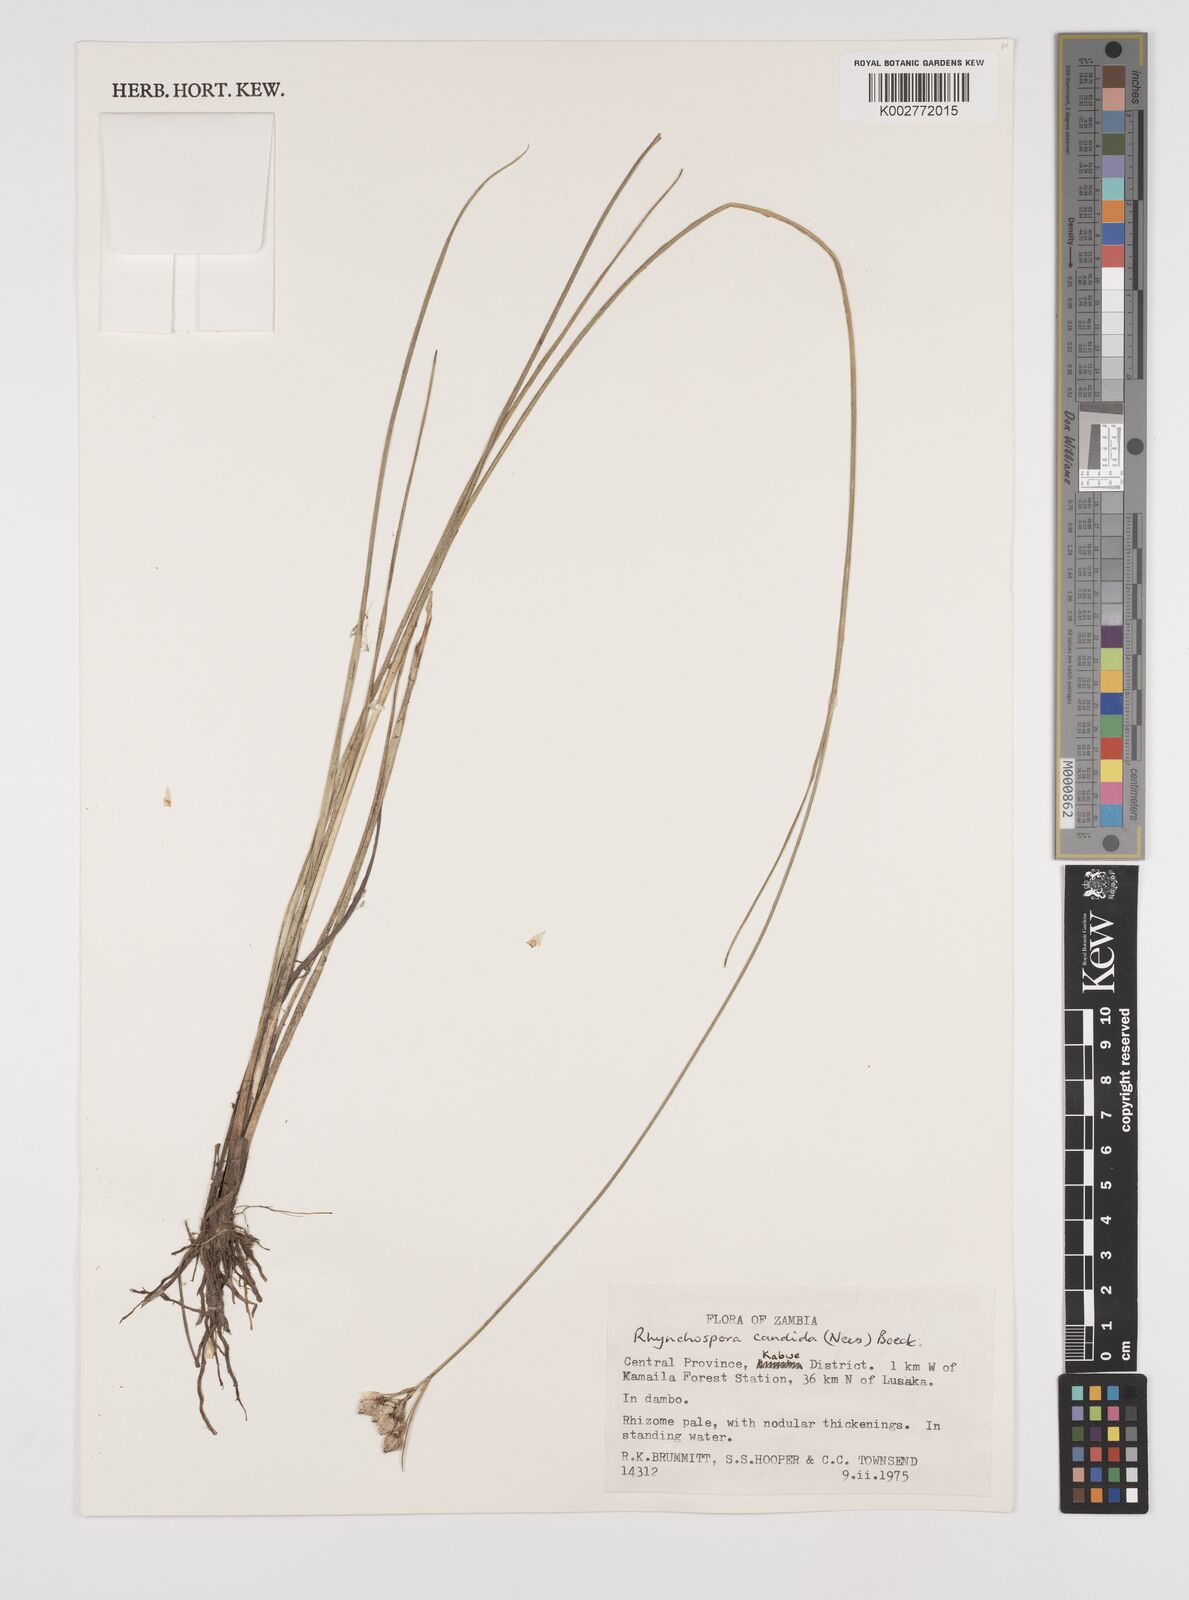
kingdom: Plantae
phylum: Tracheophyta
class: Liliopsida
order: Poales
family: Cyperaceae
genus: Rhynchospora
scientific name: Rhynchospora candida
